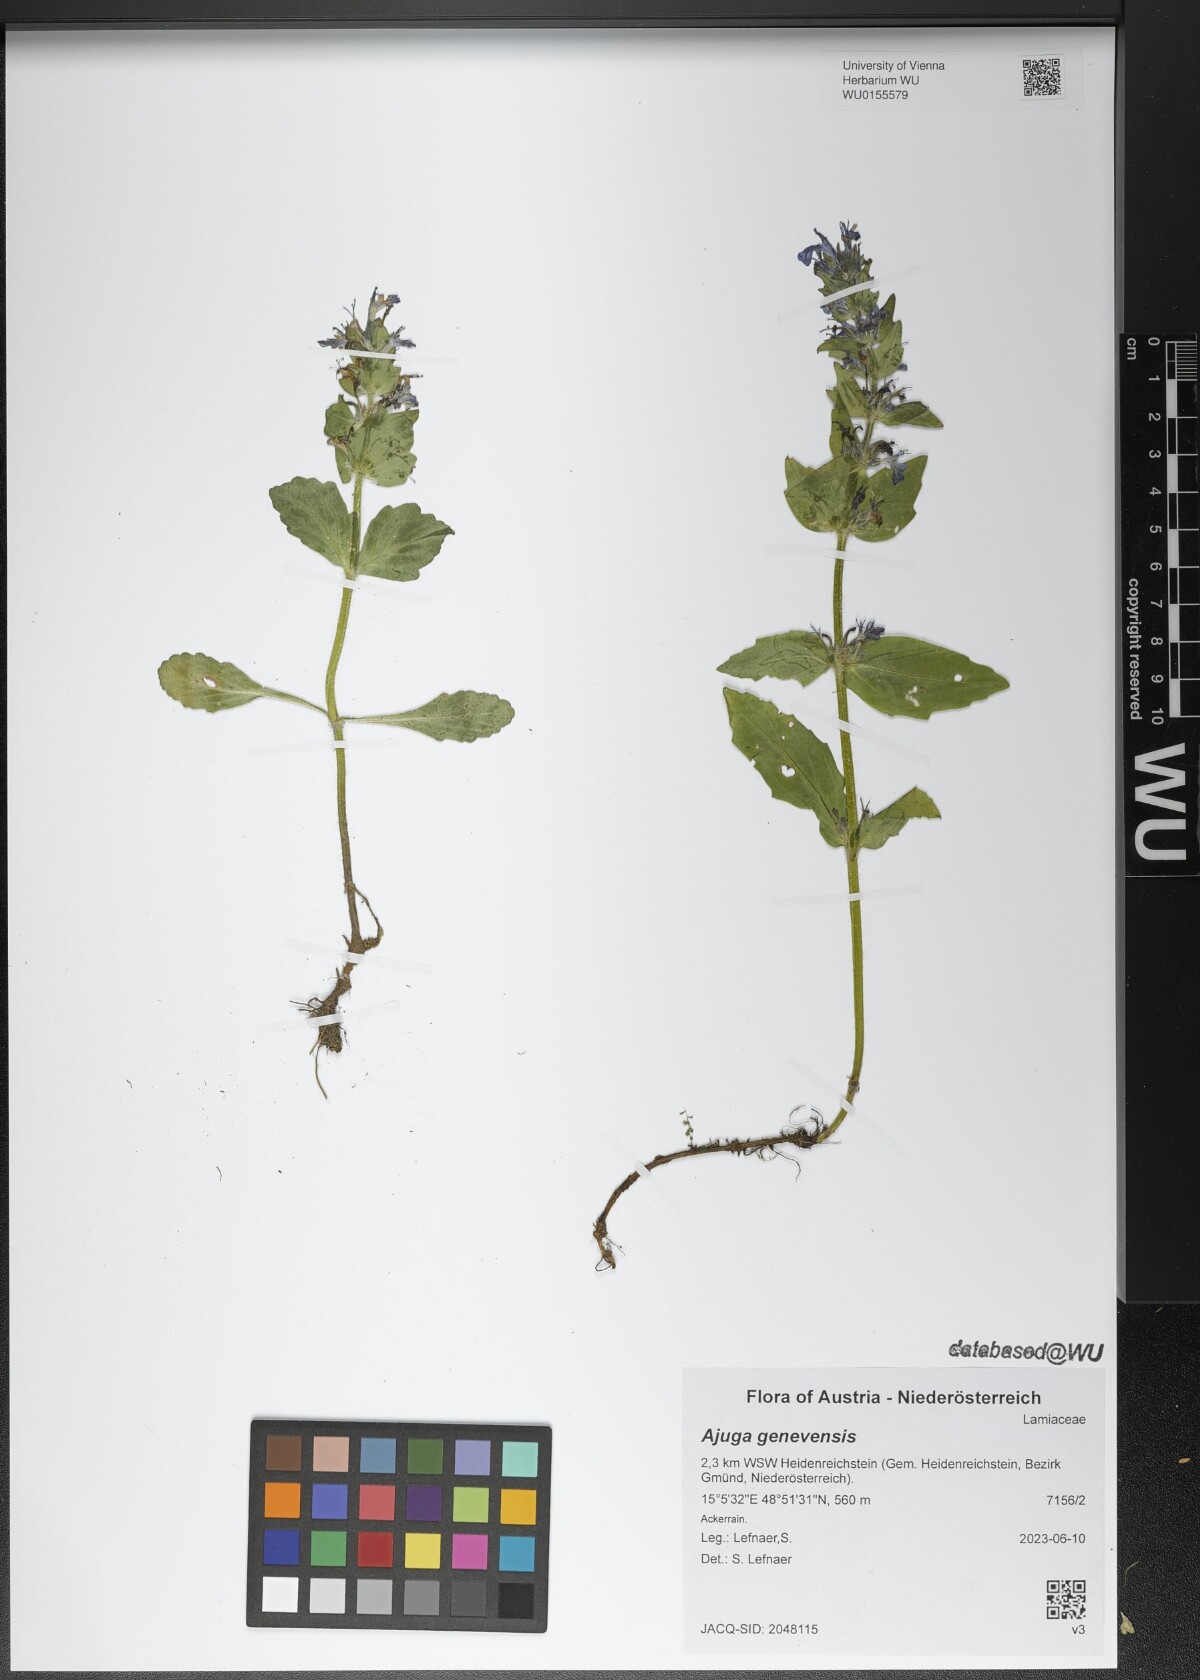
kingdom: Plantae
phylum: Tracheophyta
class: Magnoliopsida
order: Lamiales
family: Lamiaceae
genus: Ajuga
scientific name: Ajuga genevensis
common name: Blue bugle
